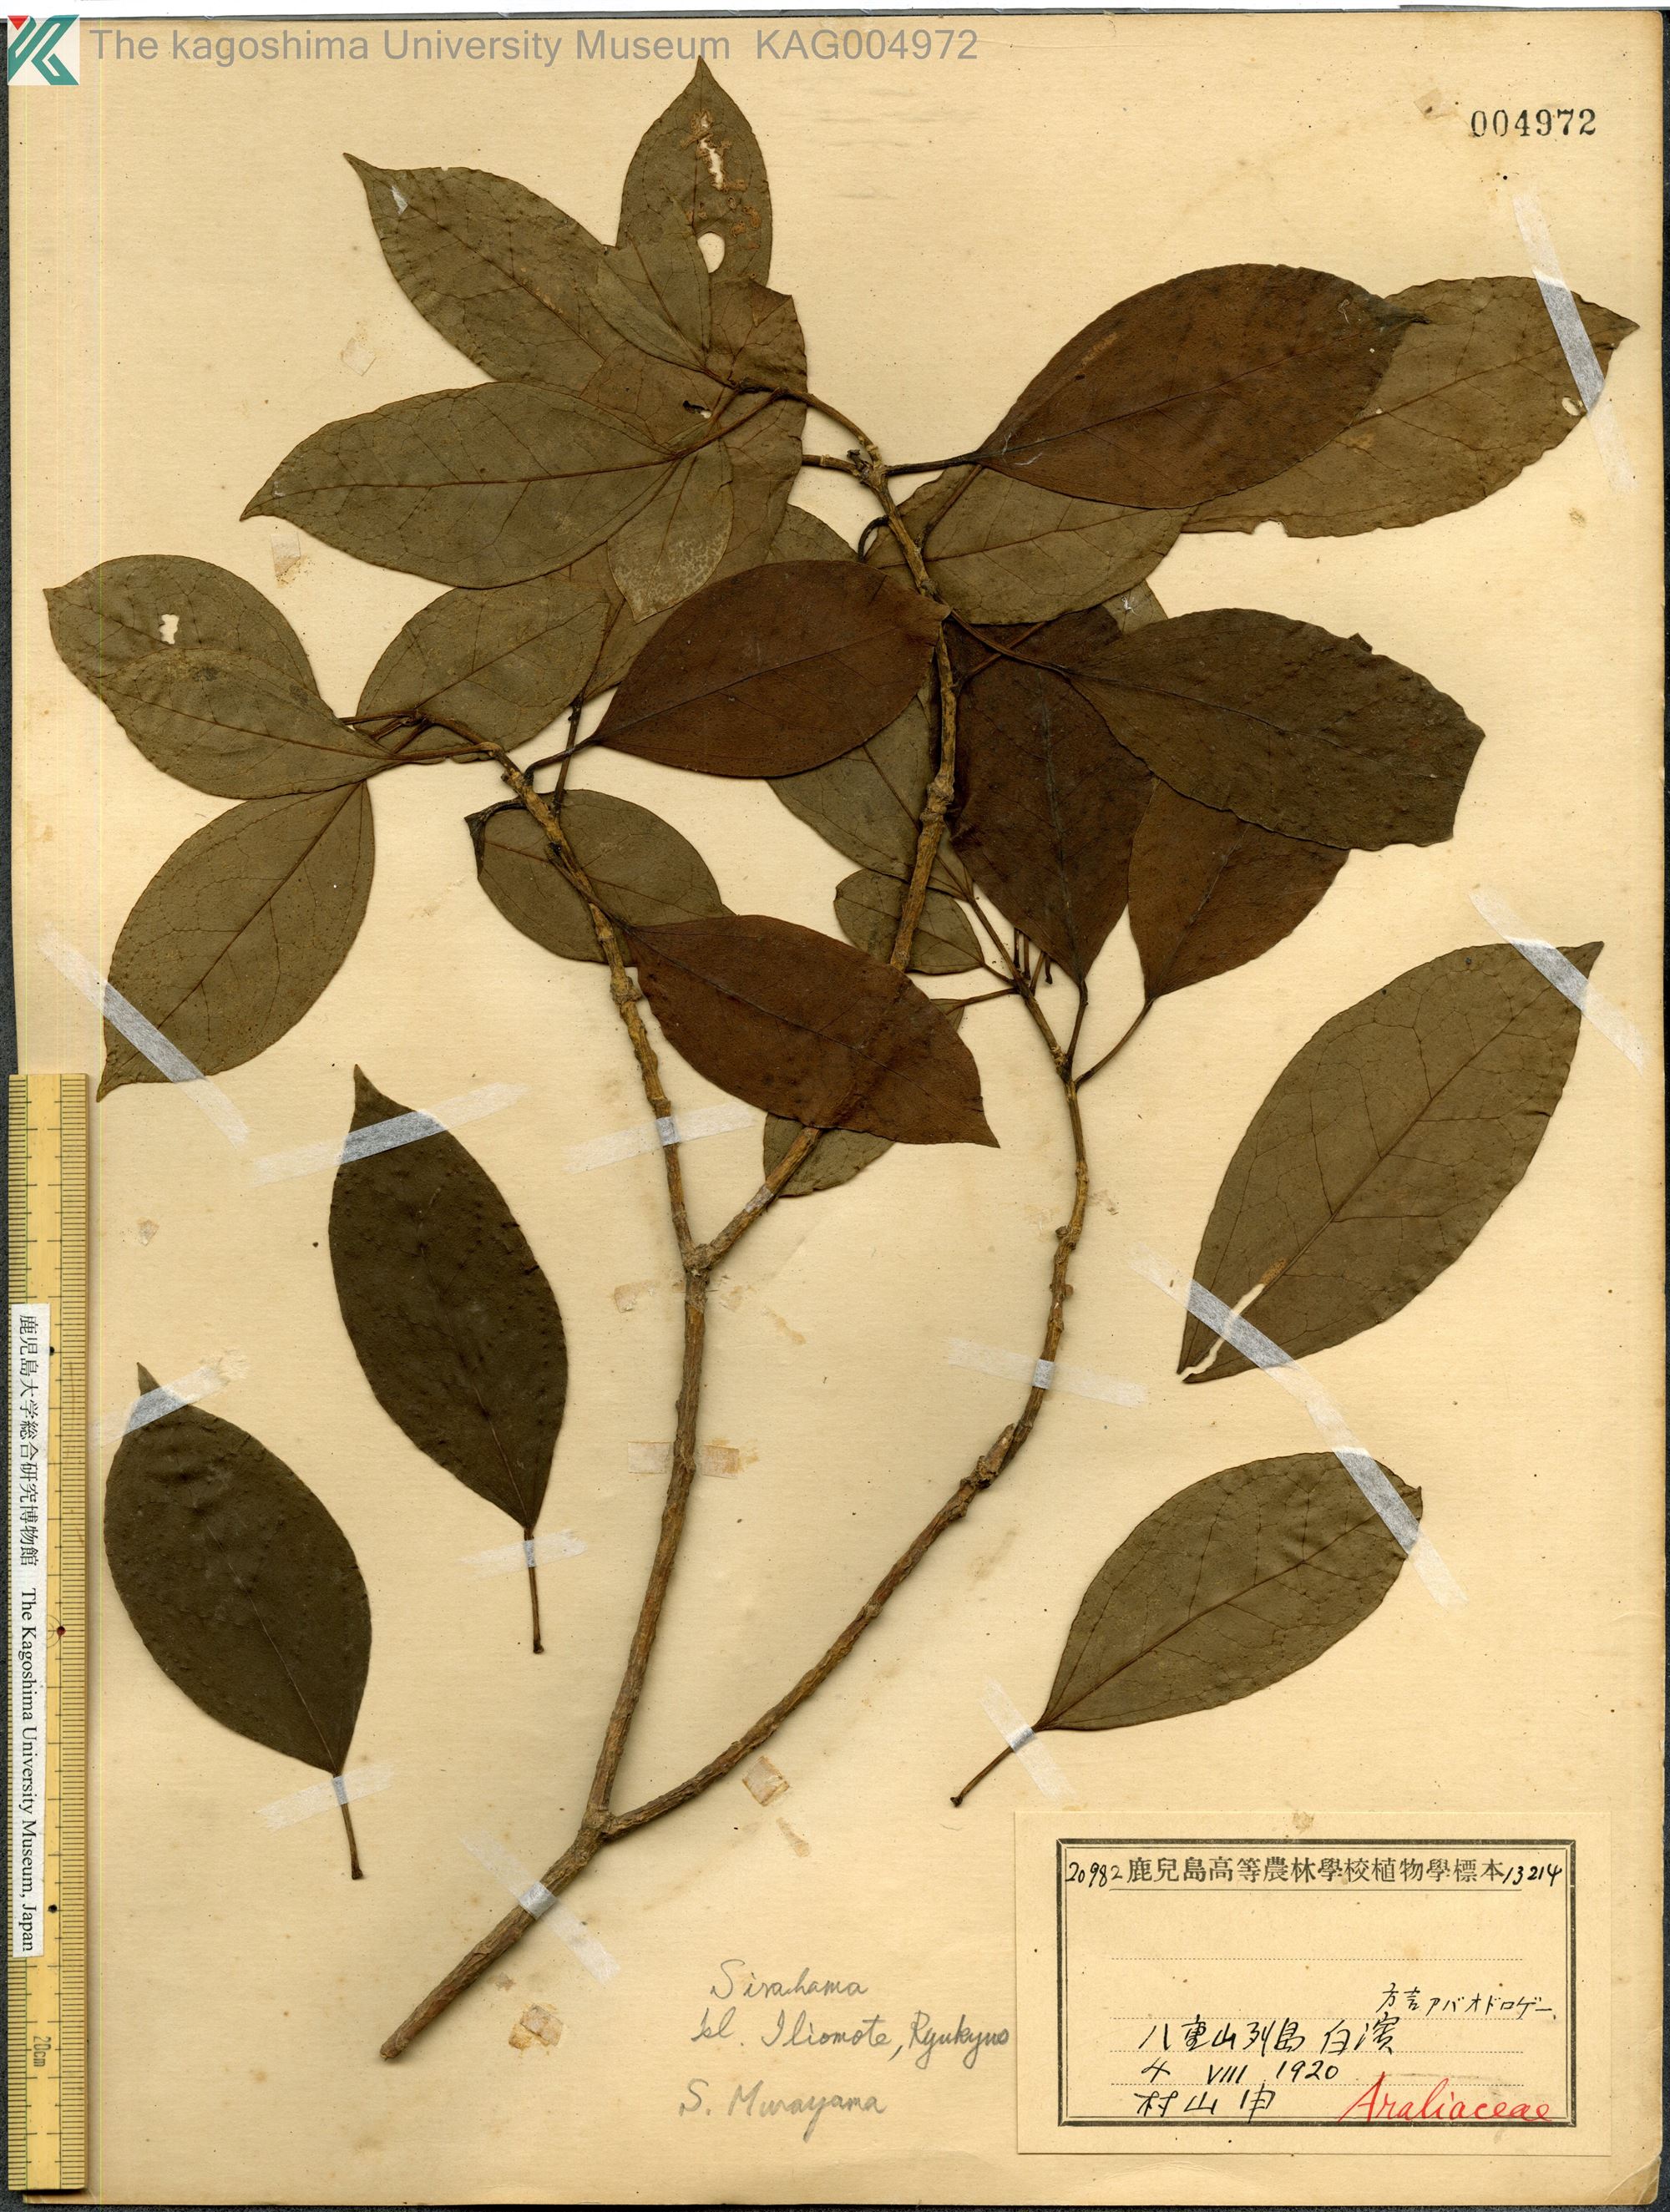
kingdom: Plantae
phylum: Tracheophyta
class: Magnoliopsida
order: Apiales
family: Araliaceae
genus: Dendropanax
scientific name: Dendropanax trifidus
